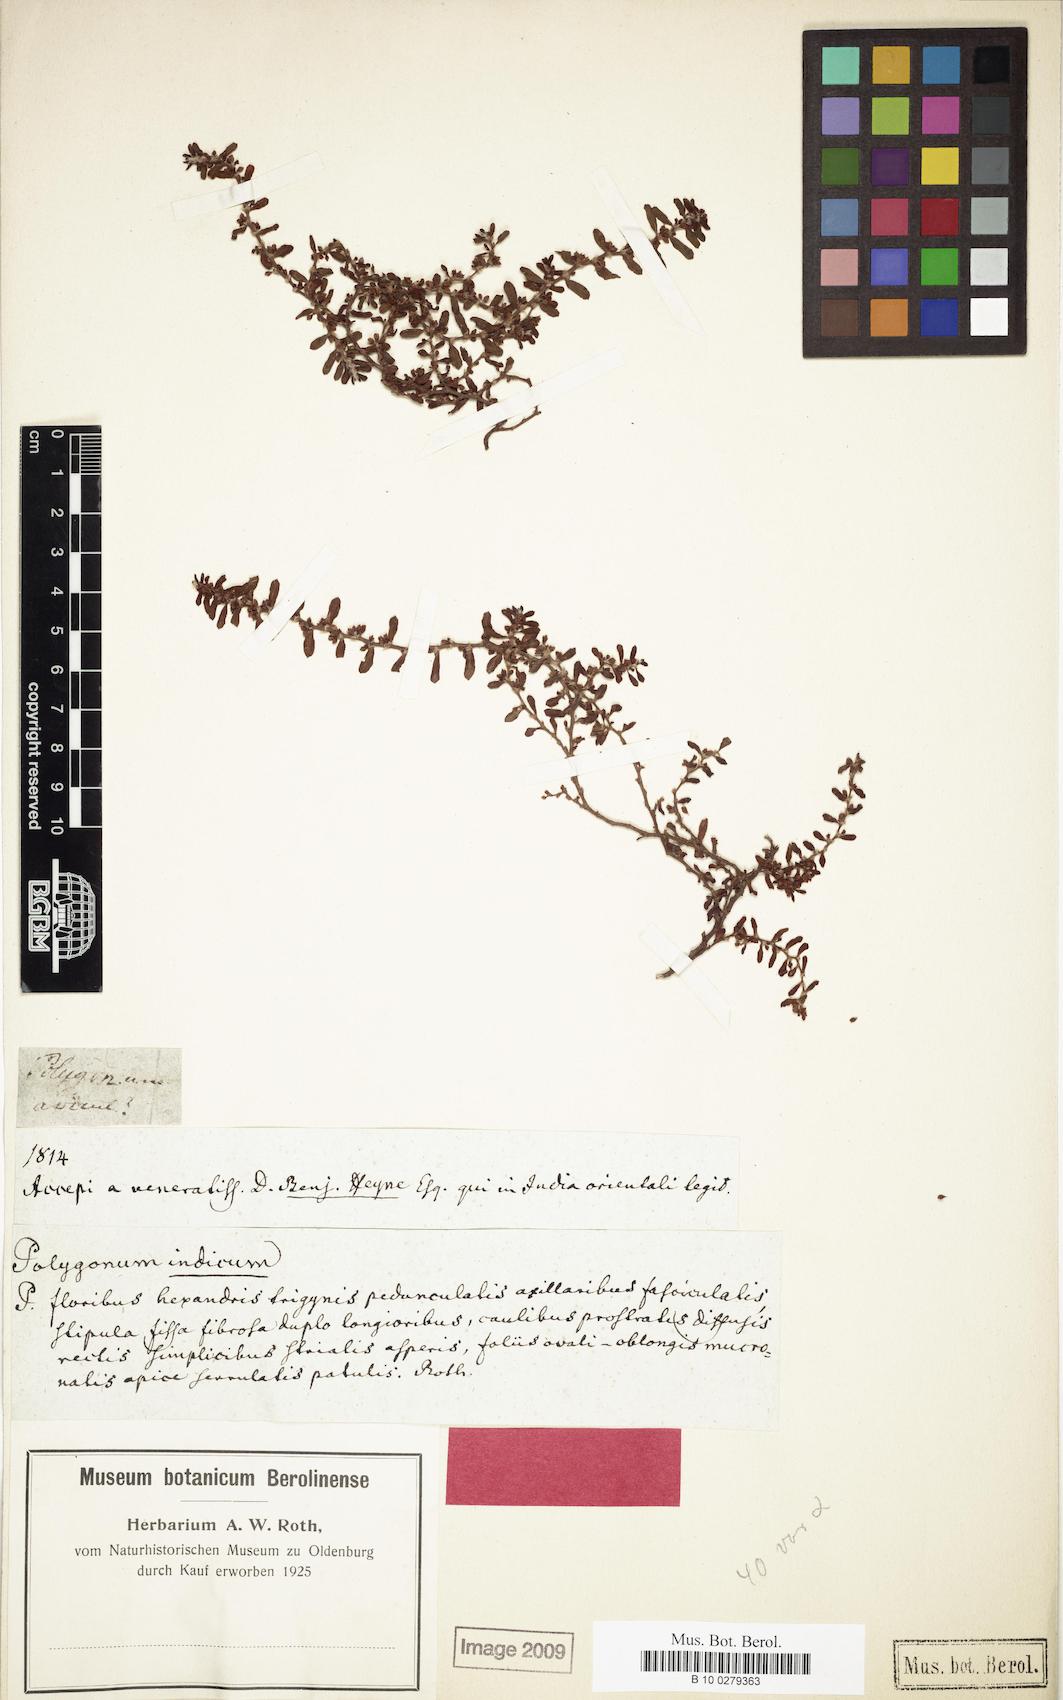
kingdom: Plantae
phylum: Tracheophyta
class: Magnoliopsida
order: Caryophyllales
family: Polygonaceae
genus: Polygonum
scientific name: Polygonum plebeium
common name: Common knotweed
